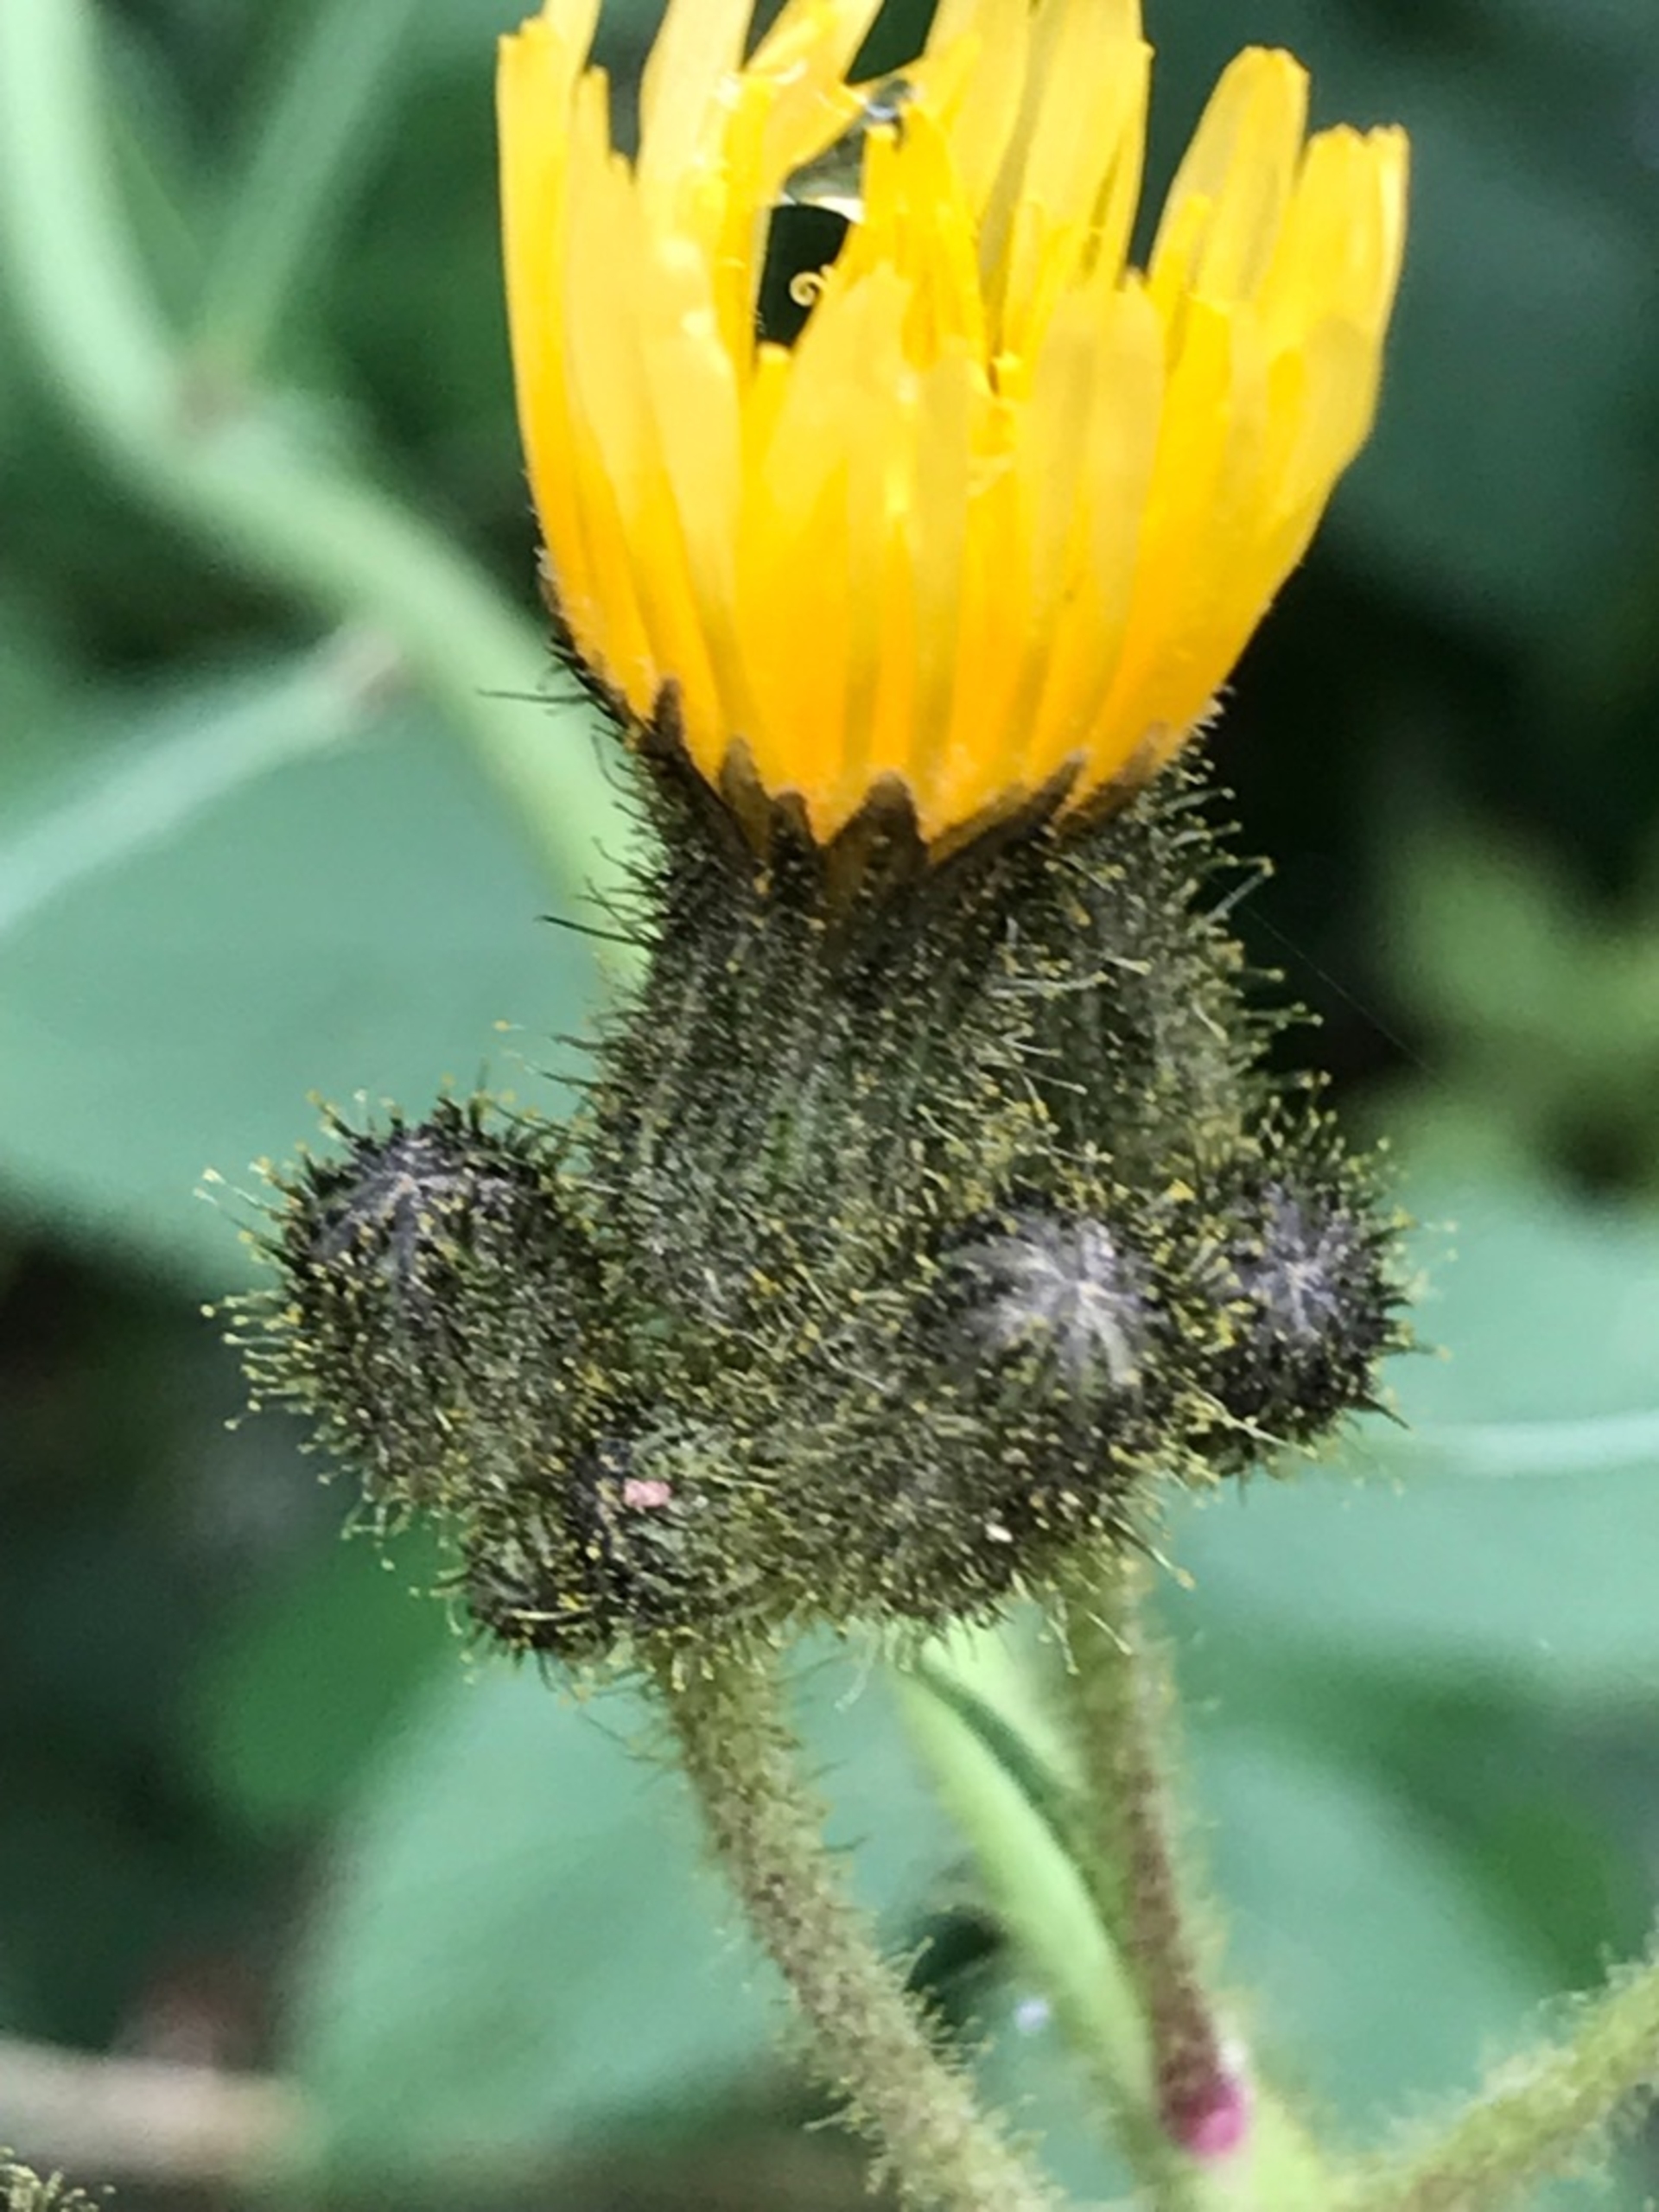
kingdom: Plantae
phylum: Tracheophyta
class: Magnoliopsida
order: Asterales
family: Asteraceae
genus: Sonchus
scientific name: Sonchus palustris
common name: Kær-svinemælk
